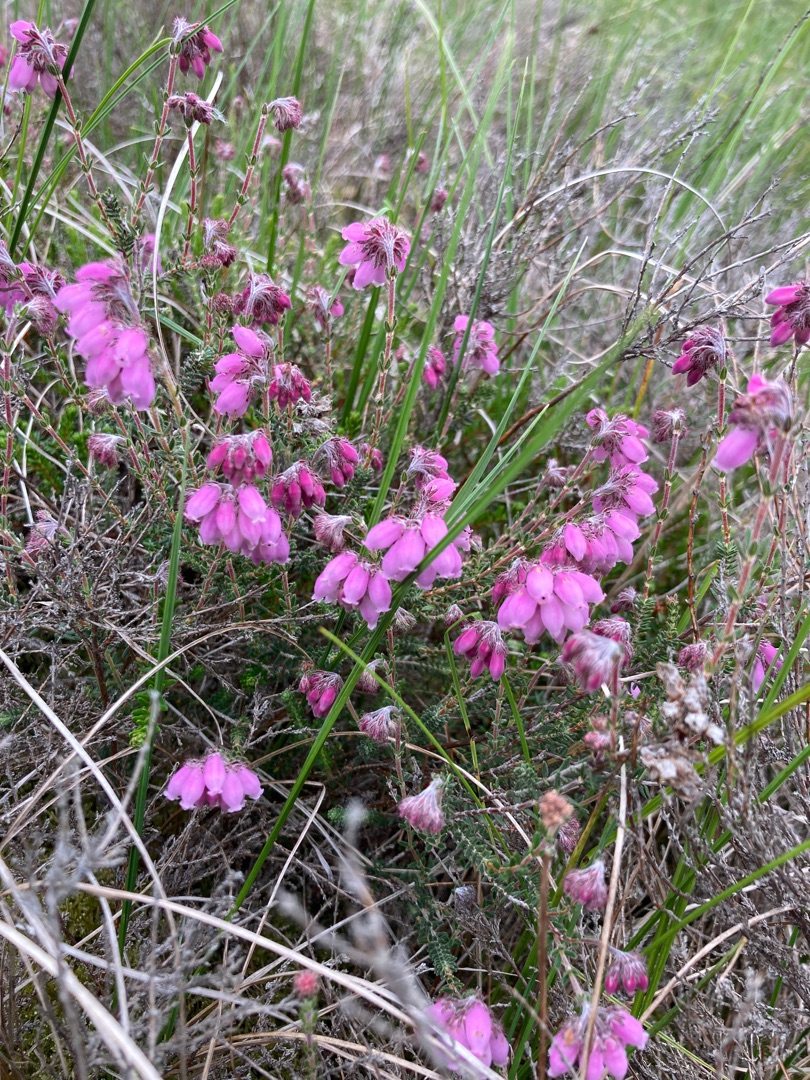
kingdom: Plantae
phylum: Tracheophyta
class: Magnoliopsida
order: Ericales
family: Ericaceae
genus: Erica
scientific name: Erica tetralix
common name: Klokkelyng
